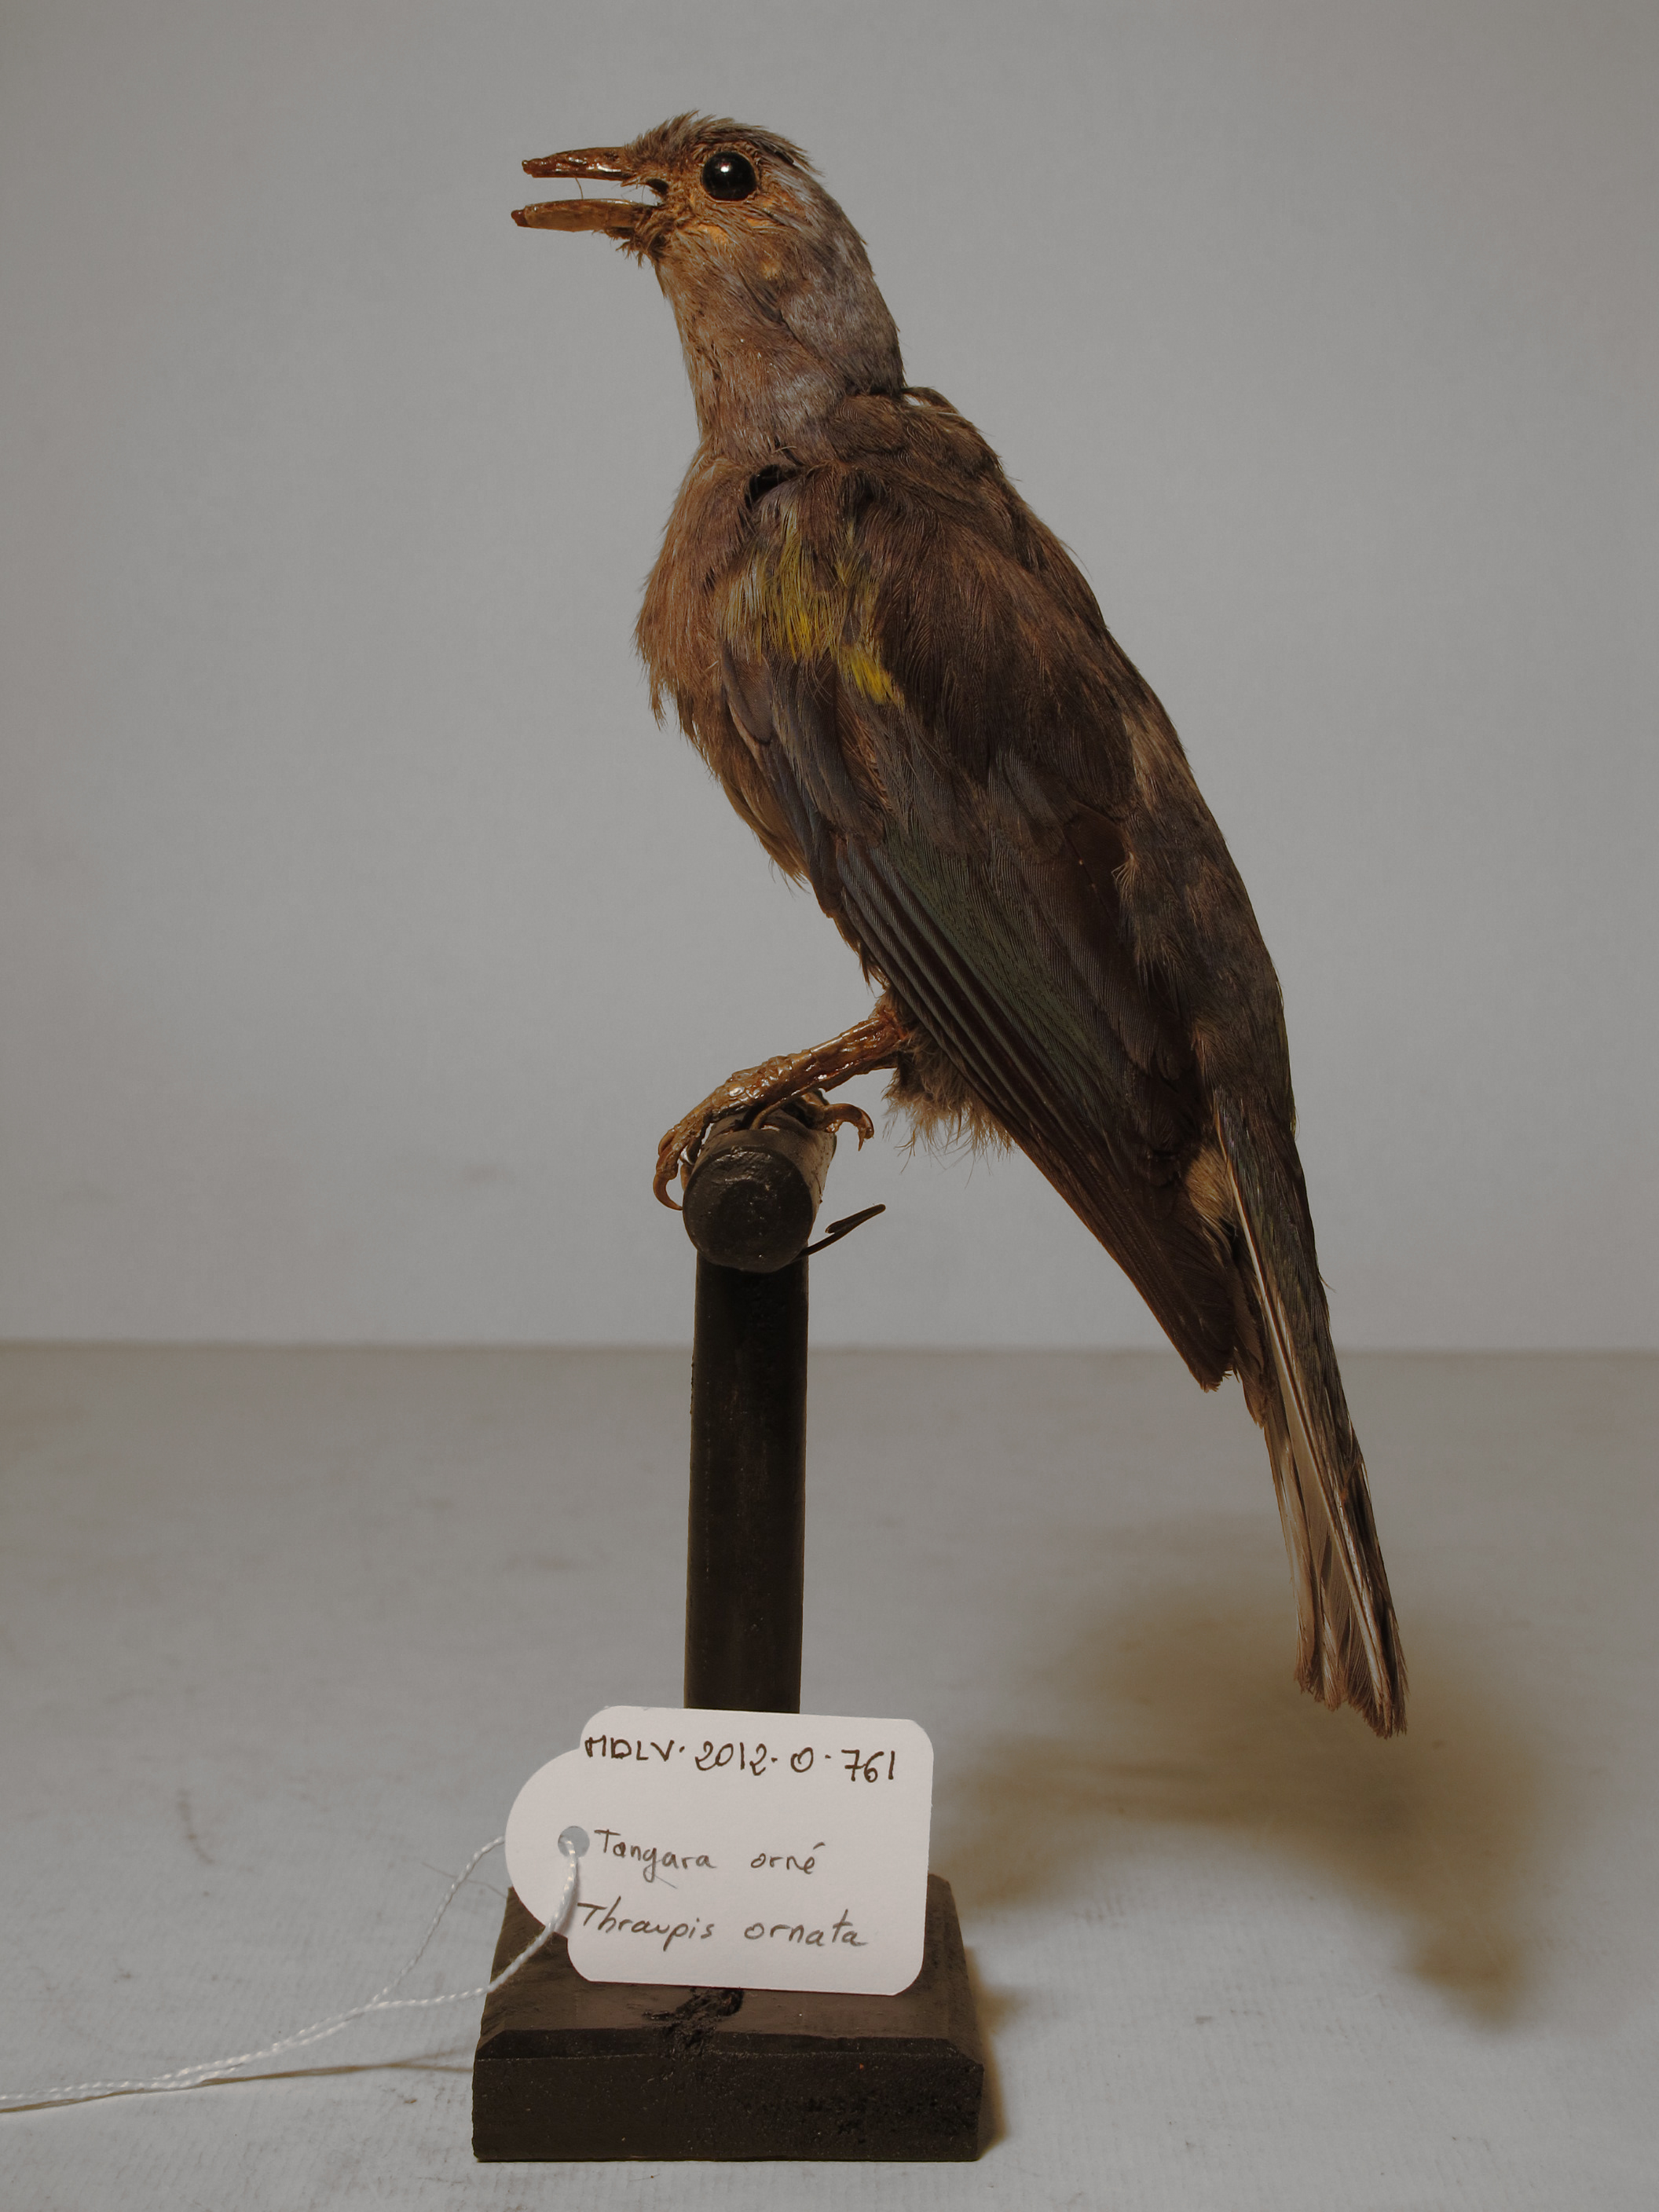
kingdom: Animalia
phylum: Chordata
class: Aves
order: Passeriformes
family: Thraupidae
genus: Thraupis
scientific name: Thraupis ornata
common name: Golden-chevroned Tanager
